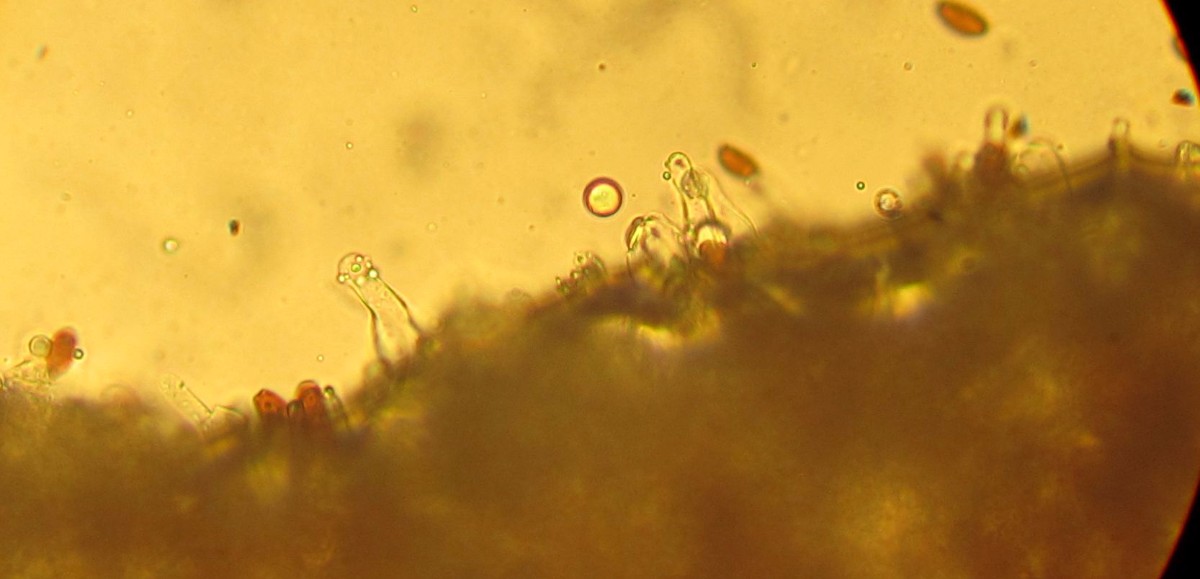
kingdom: Fungi
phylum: Basidiomycota
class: Agaricomycetes
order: Agaricales
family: Psathyrellaceae
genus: Psathyrella
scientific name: Psathyrella
